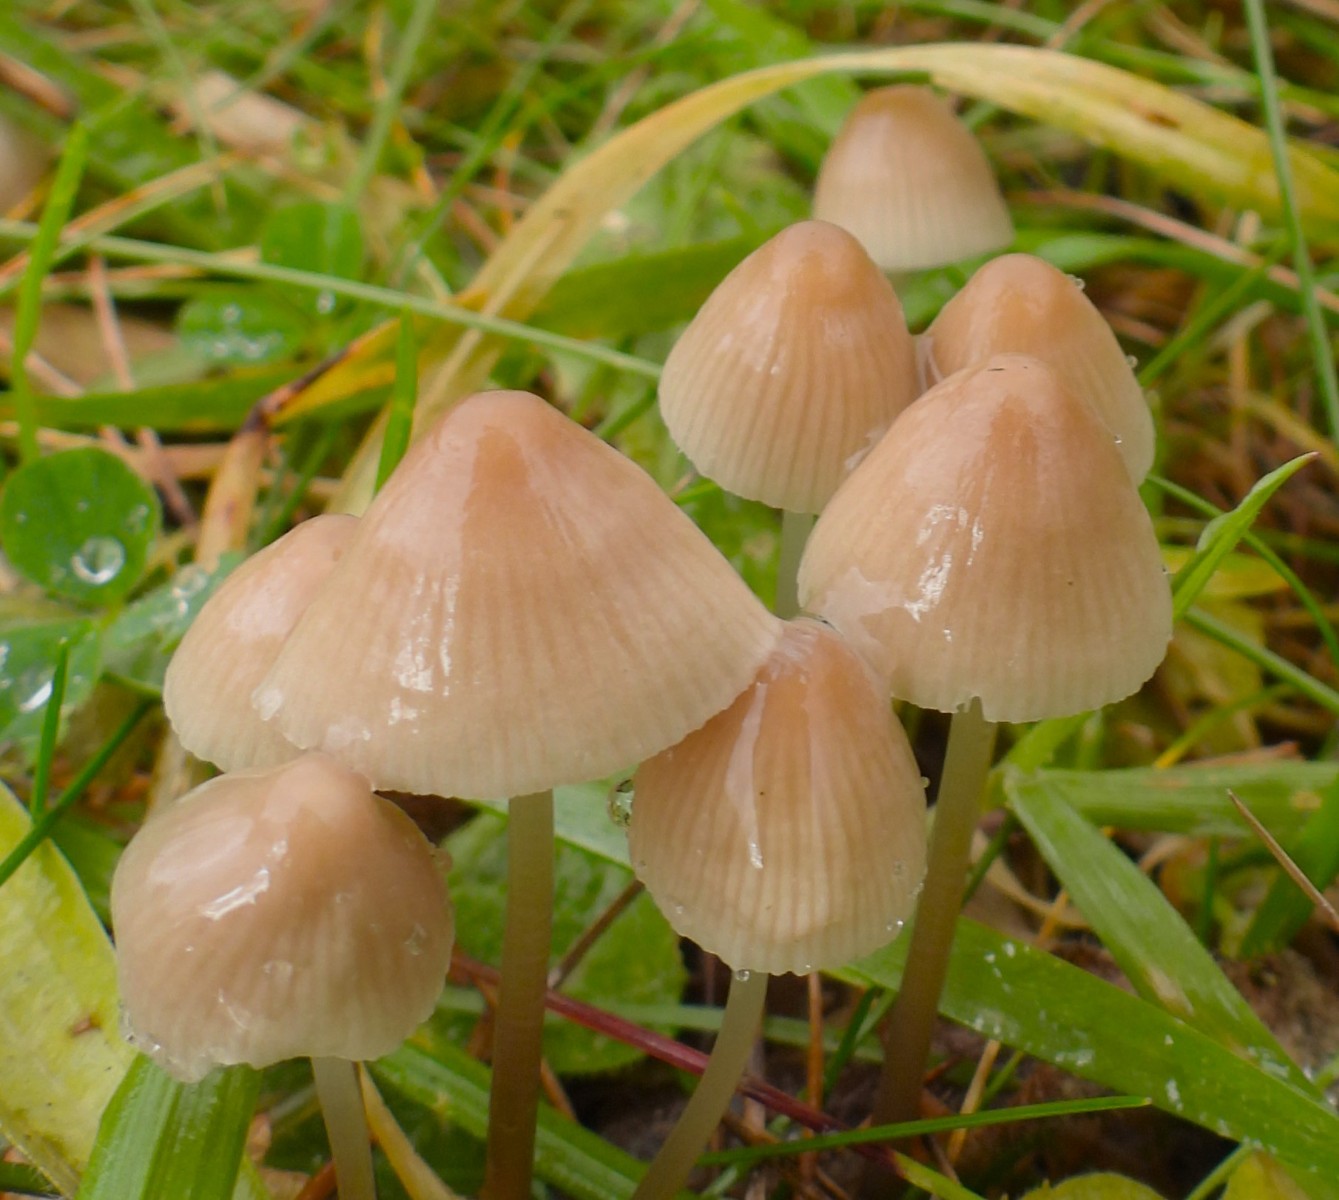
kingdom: Fungi
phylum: Basidiomycota
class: Agaricomycetes
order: Agaricales
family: Mycenaceae
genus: Mycena
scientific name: Mycena metata
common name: rødlig huesvamp
